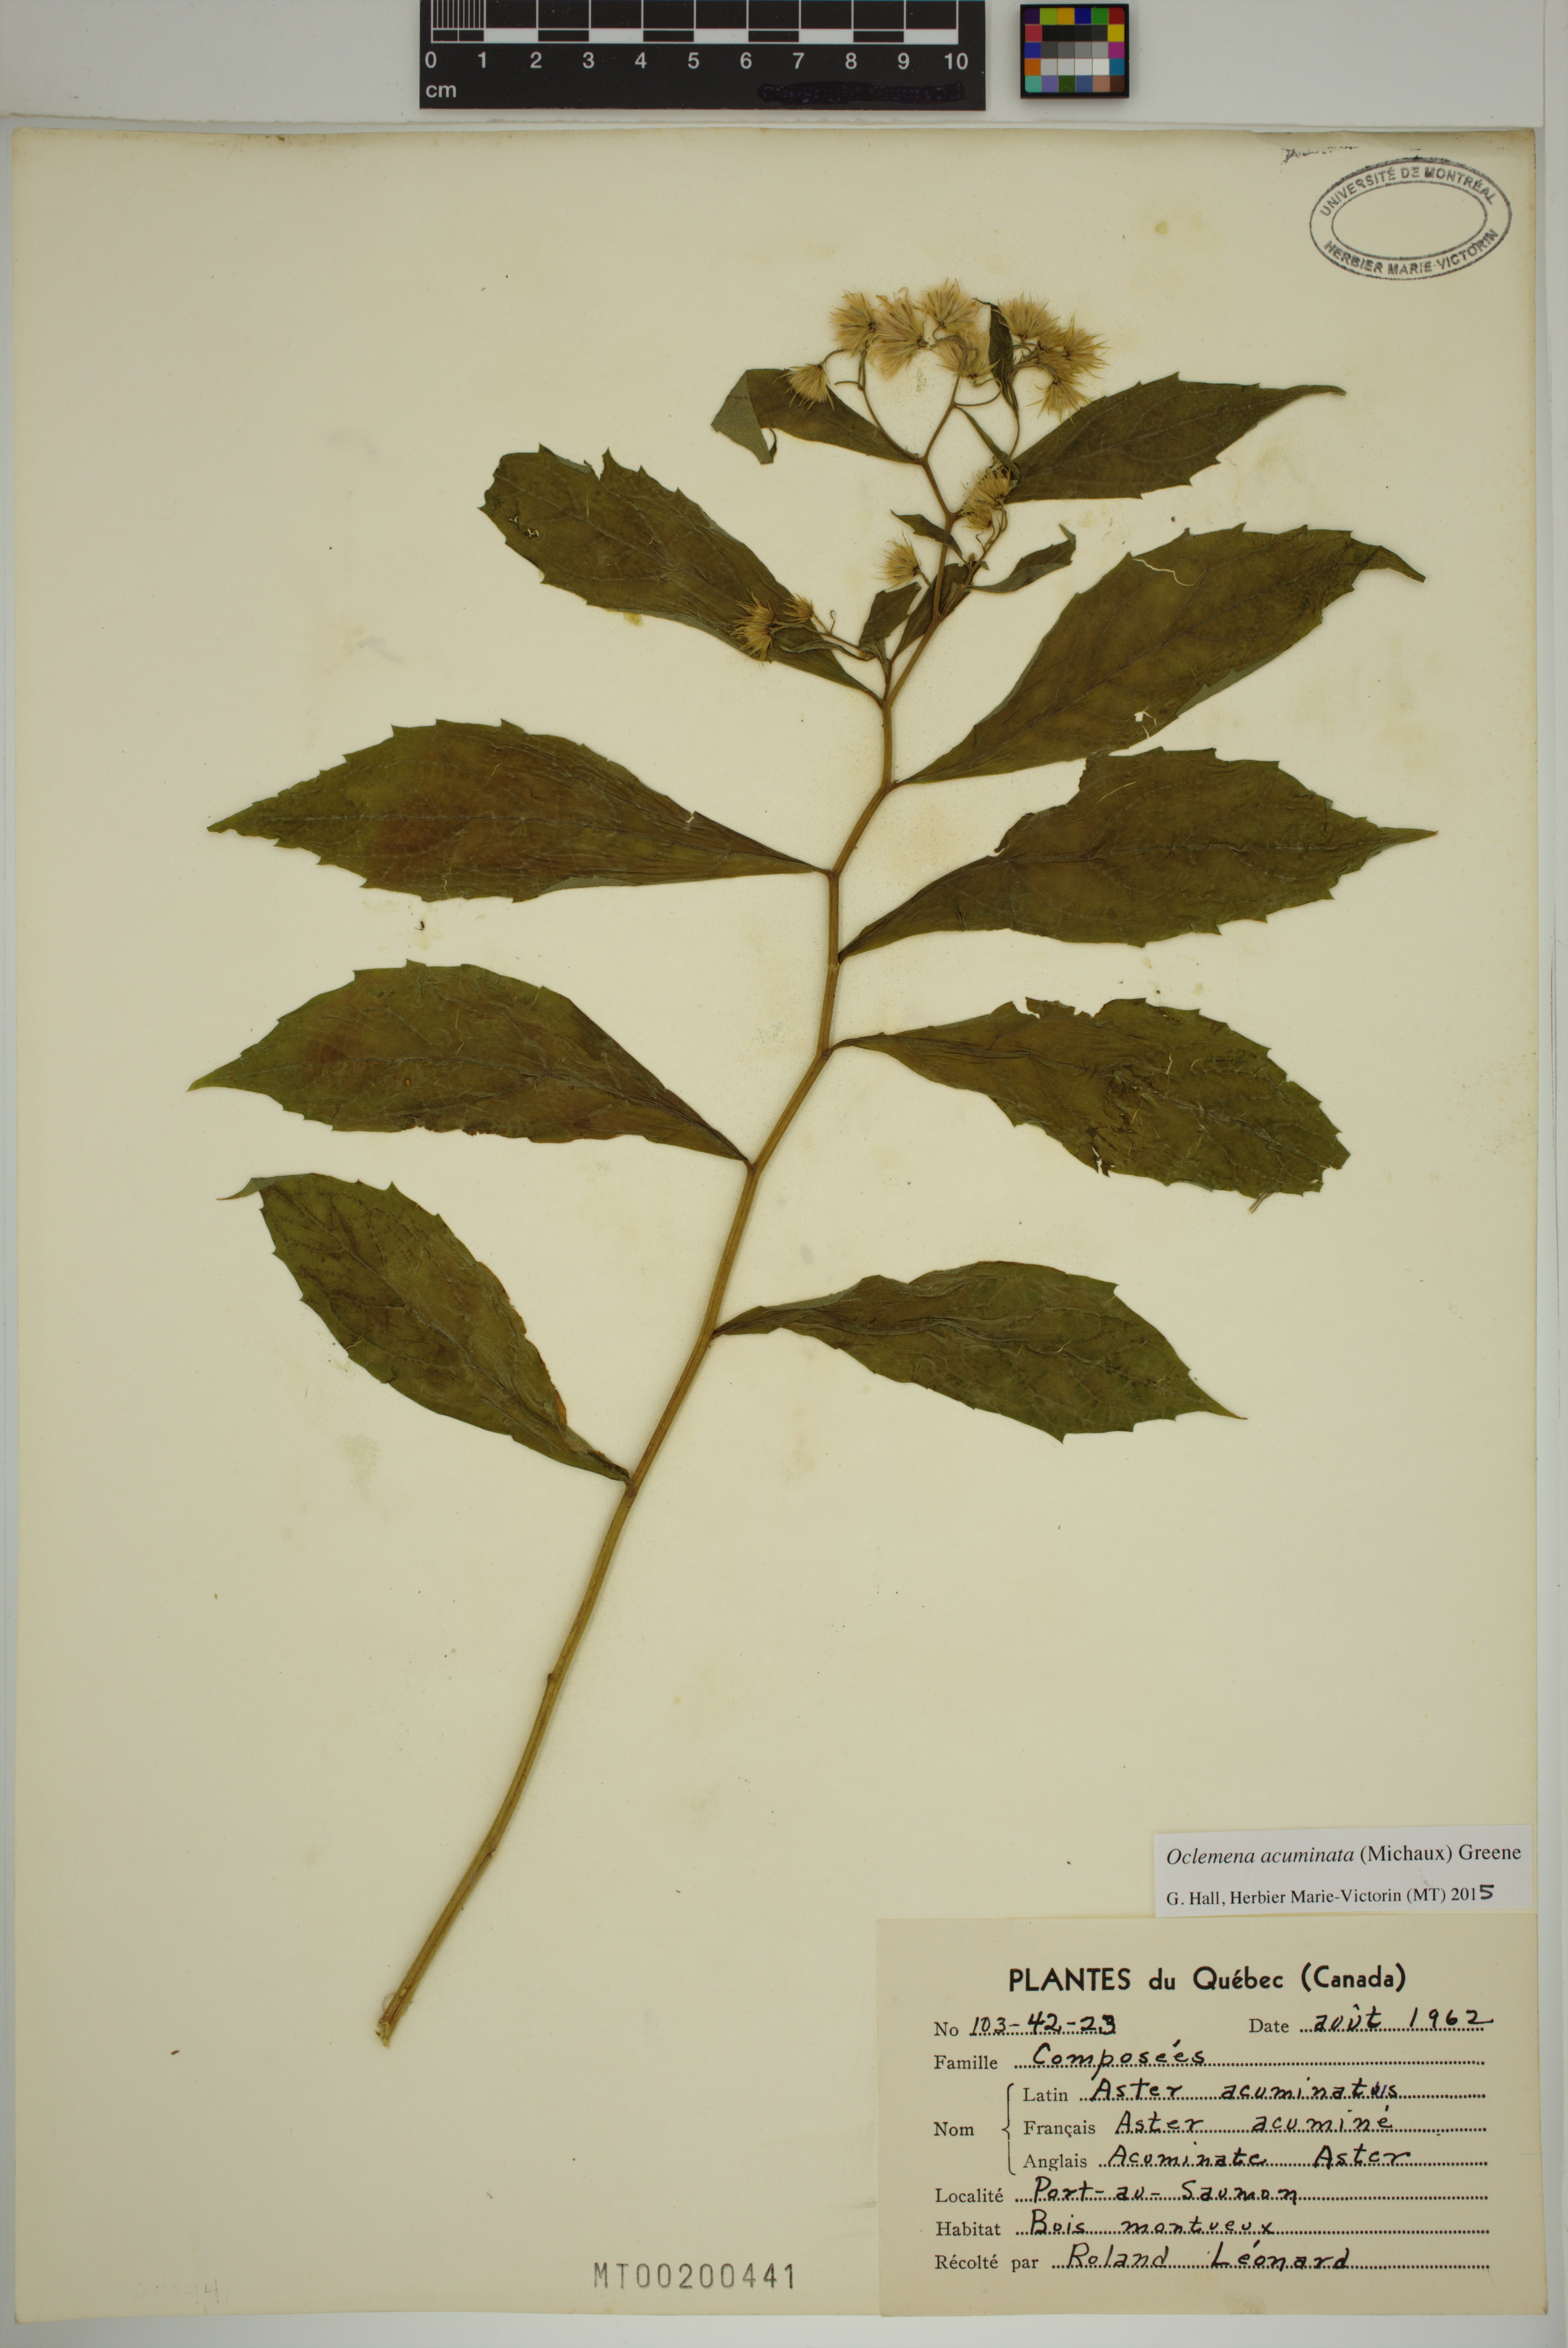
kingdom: Plantae
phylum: Tracheophyta
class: Magnoliopsida
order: Asterales
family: Asteraceae
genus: Oclemena
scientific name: Oclemena acuminata
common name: Mountain aster
